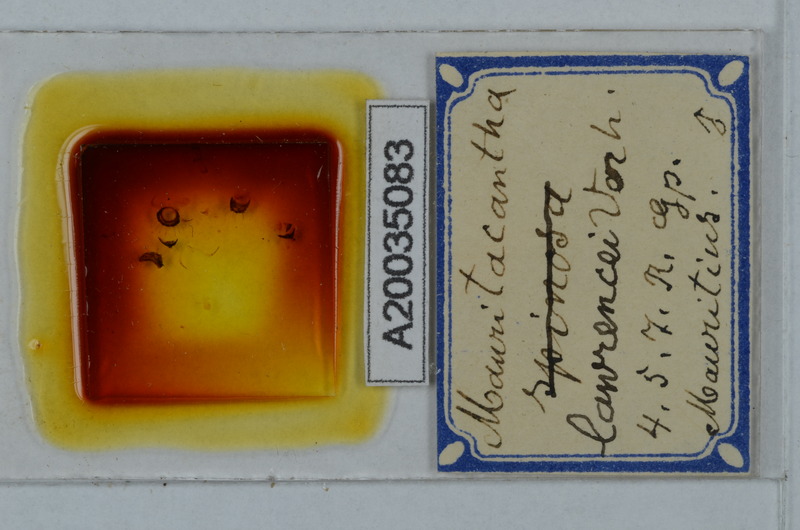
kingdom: Animalia
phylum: Arthropoda
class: Diplopoda
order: Polydesmida
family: Trichopolydesmidae
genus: Mauritacantha
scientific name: Mauritacantha lawrencei
